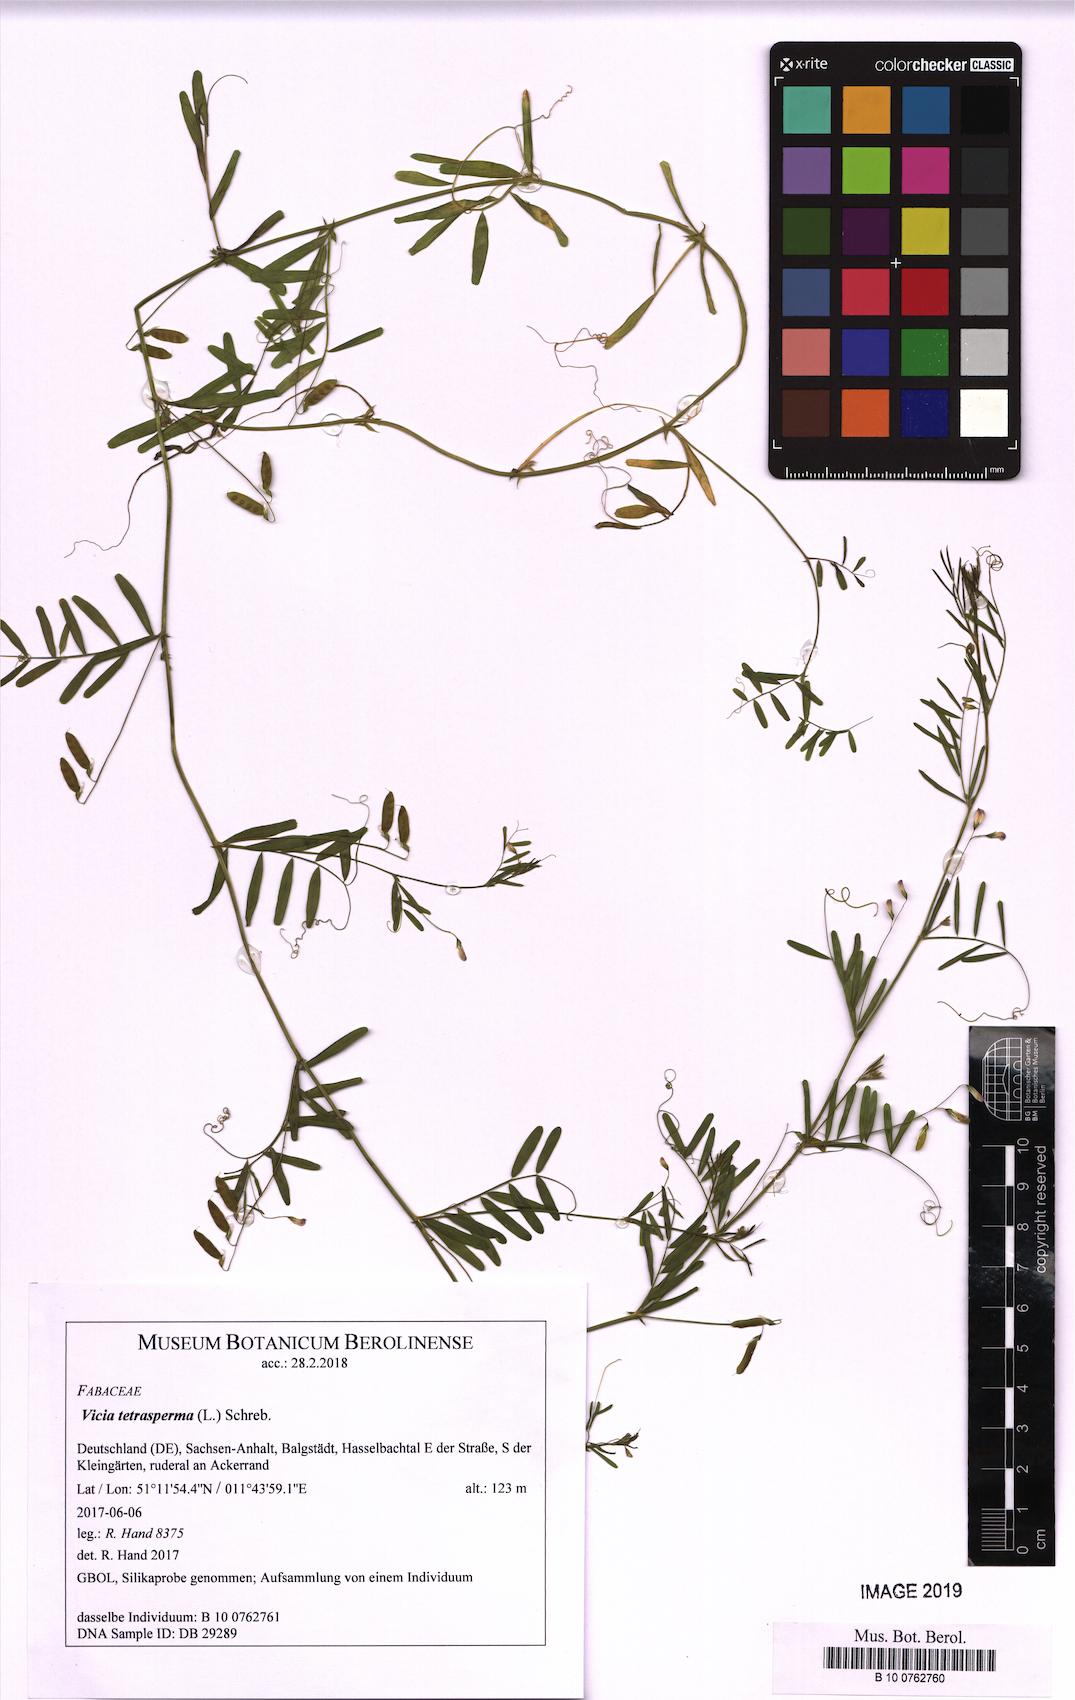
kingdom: Plantae
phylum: Tracheophyta
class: Magnoliopsida
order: Fabales
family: Fabaceae
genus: Vicia
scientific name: Vicia tetrasperma
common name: Smooth tare
